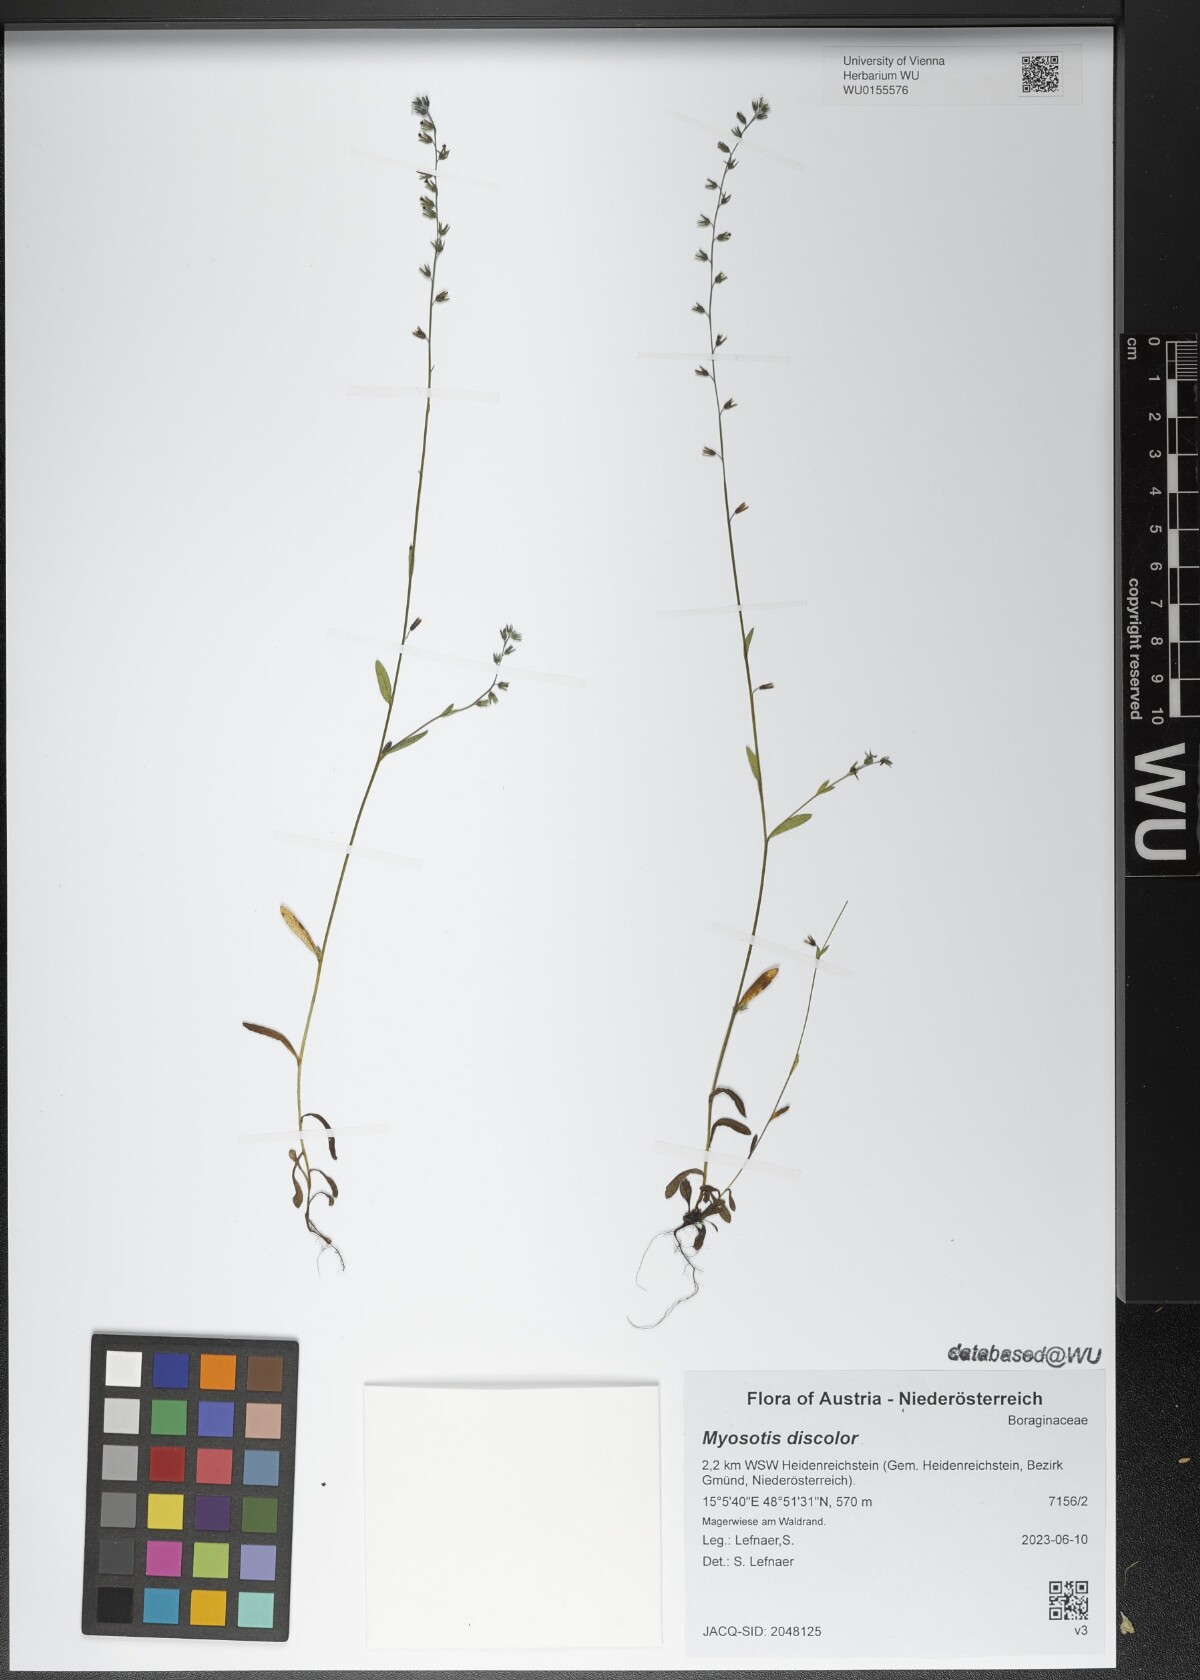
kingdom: Plantae
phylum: Tracheophyta
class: Magnoliopsida
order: Boraginales
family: Boraginaceae
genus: Myosotis
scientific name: Myosotis discolor
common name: Changing forget-me-not
